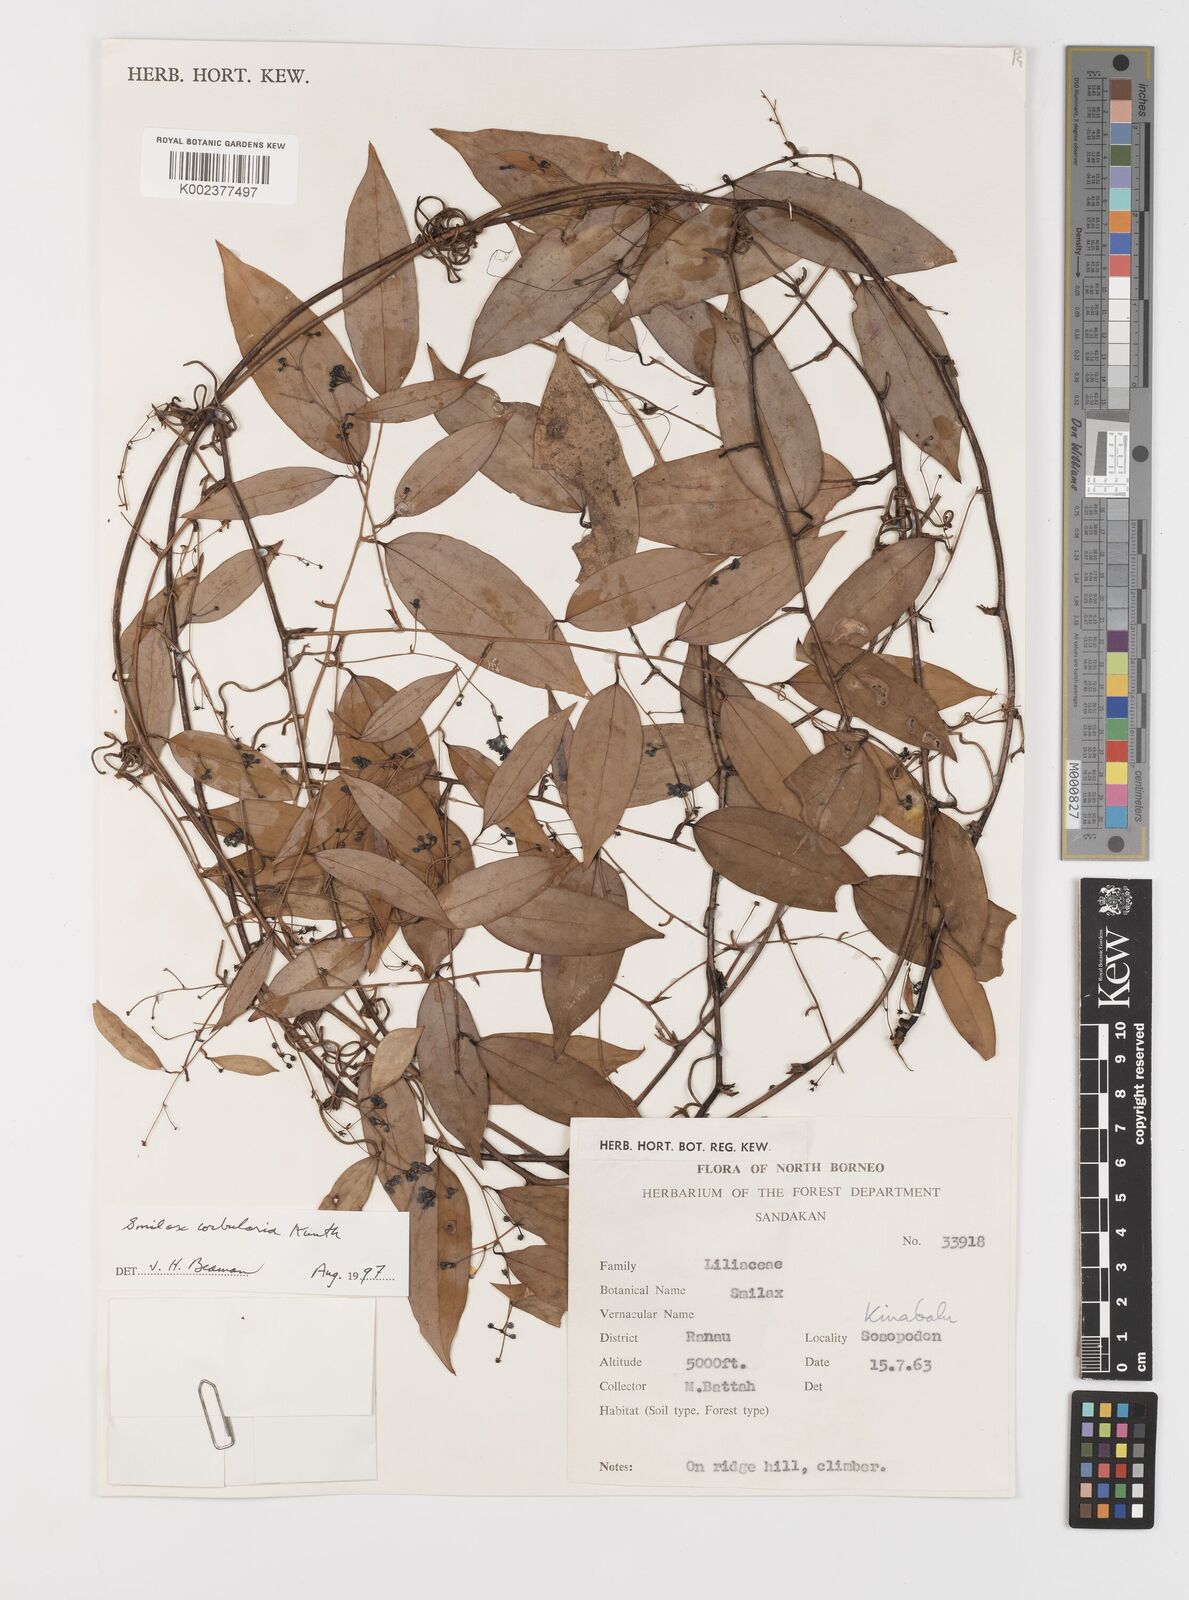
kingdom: Plantae
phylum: Tracheophyta
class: Liliopsida
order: Liliales
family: Smilacaceae
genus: Smilax
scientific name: Smilax corbularia
